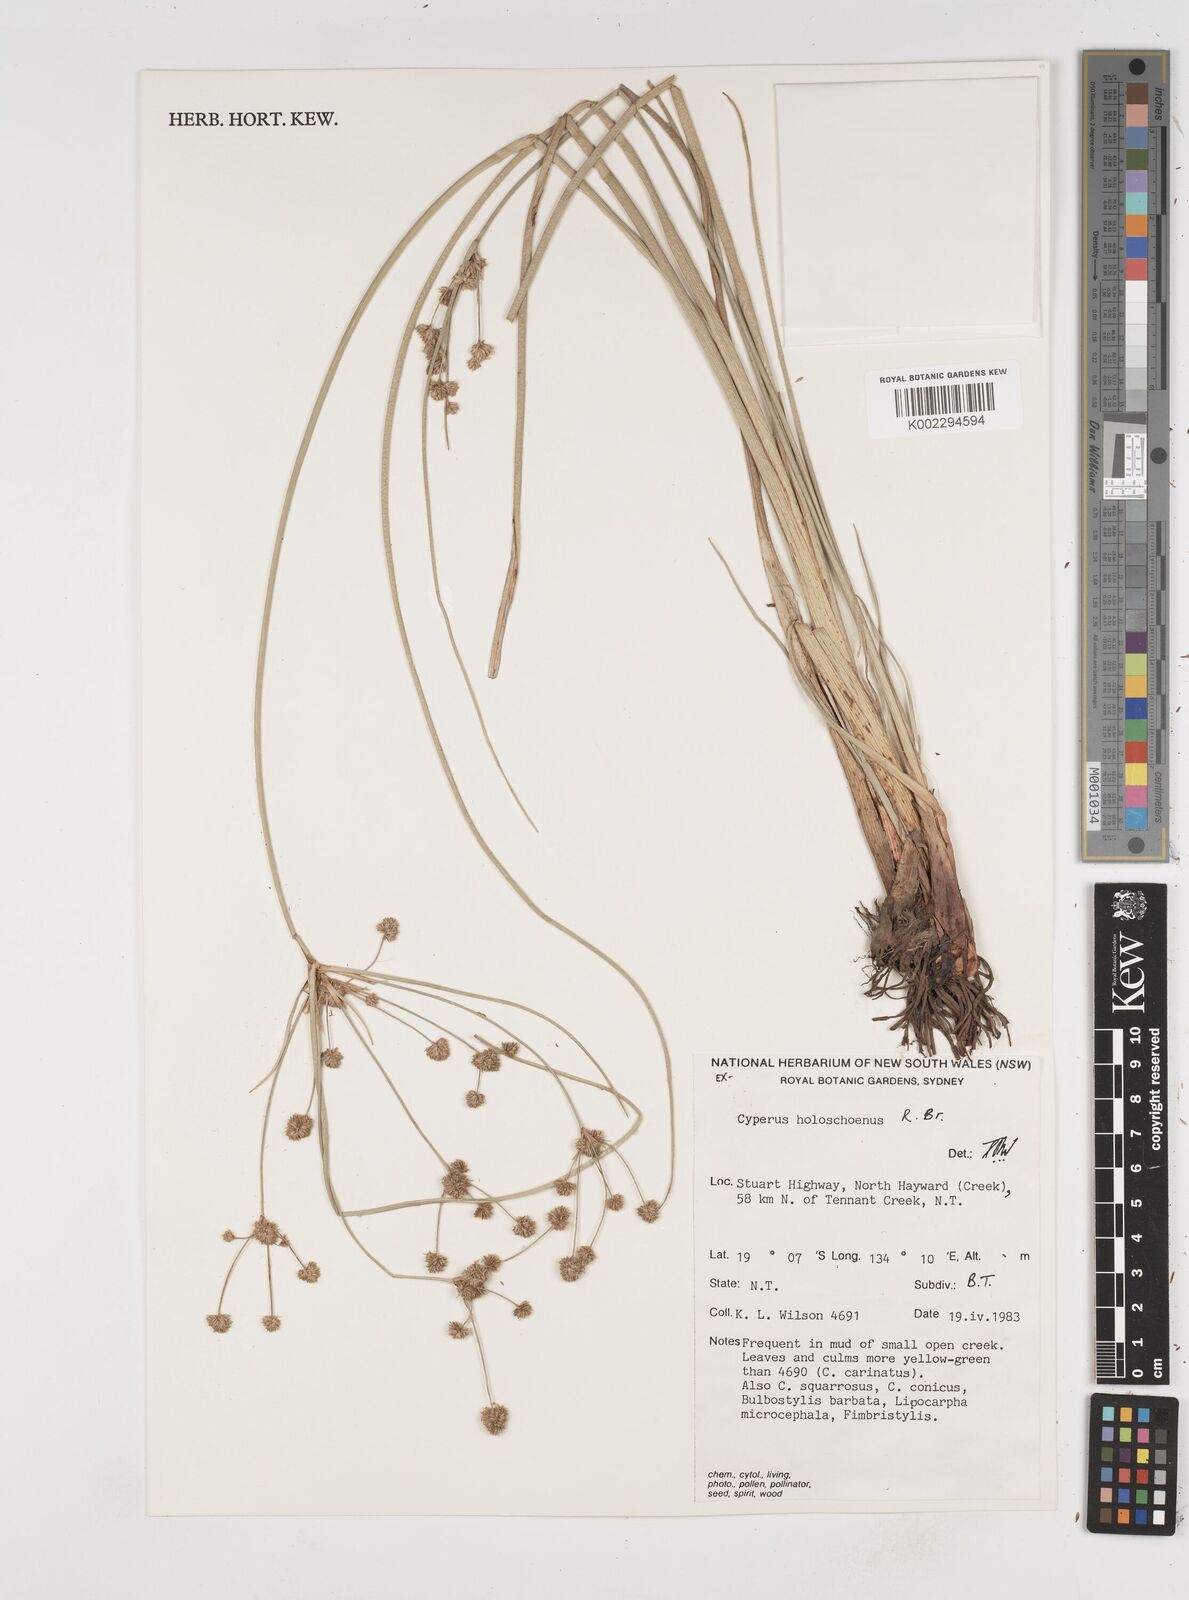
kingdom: Plantae
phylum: Tracheophyta
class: Liliopsida
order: Poales
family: Cyperaceae
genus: Cyperus
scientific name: Cyperus holoschoenus
